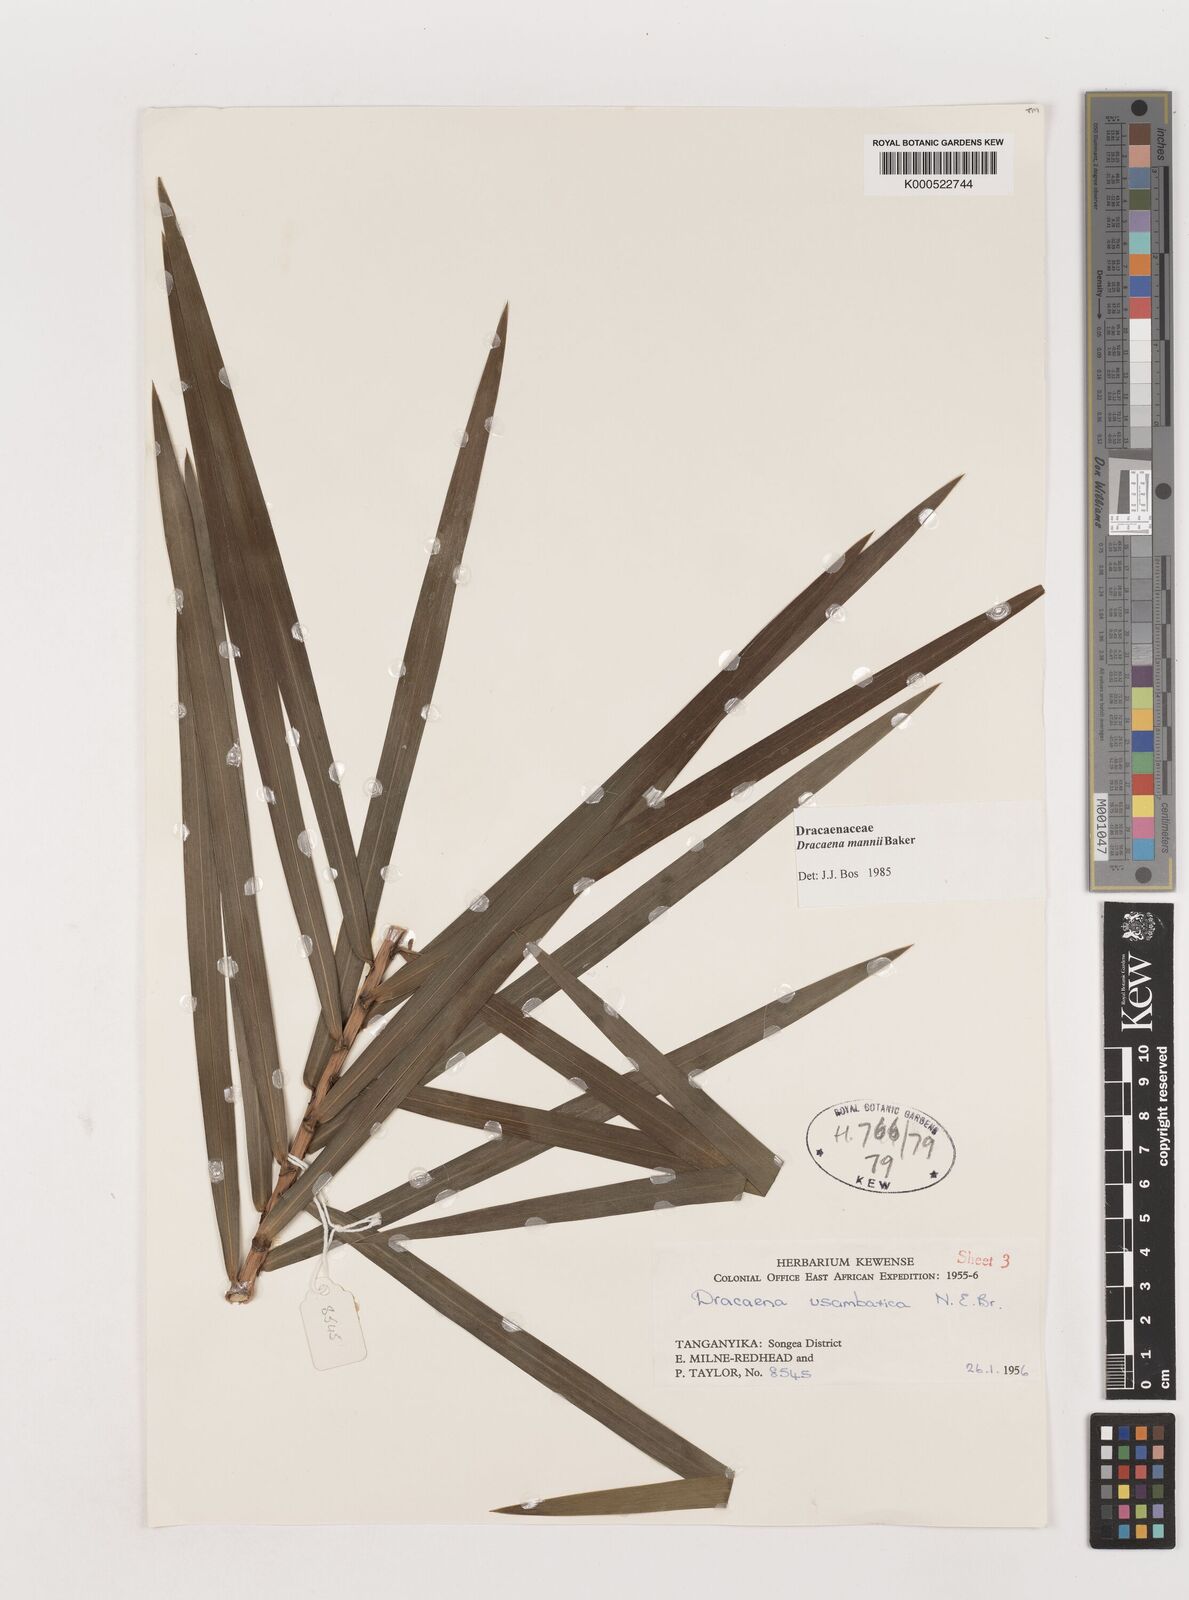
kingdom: Plantae
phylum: Tracheophyta
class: Liliopsida
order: Asparagales
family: Asparagaceae
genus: Dracaena
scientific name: Dracaena mannii
